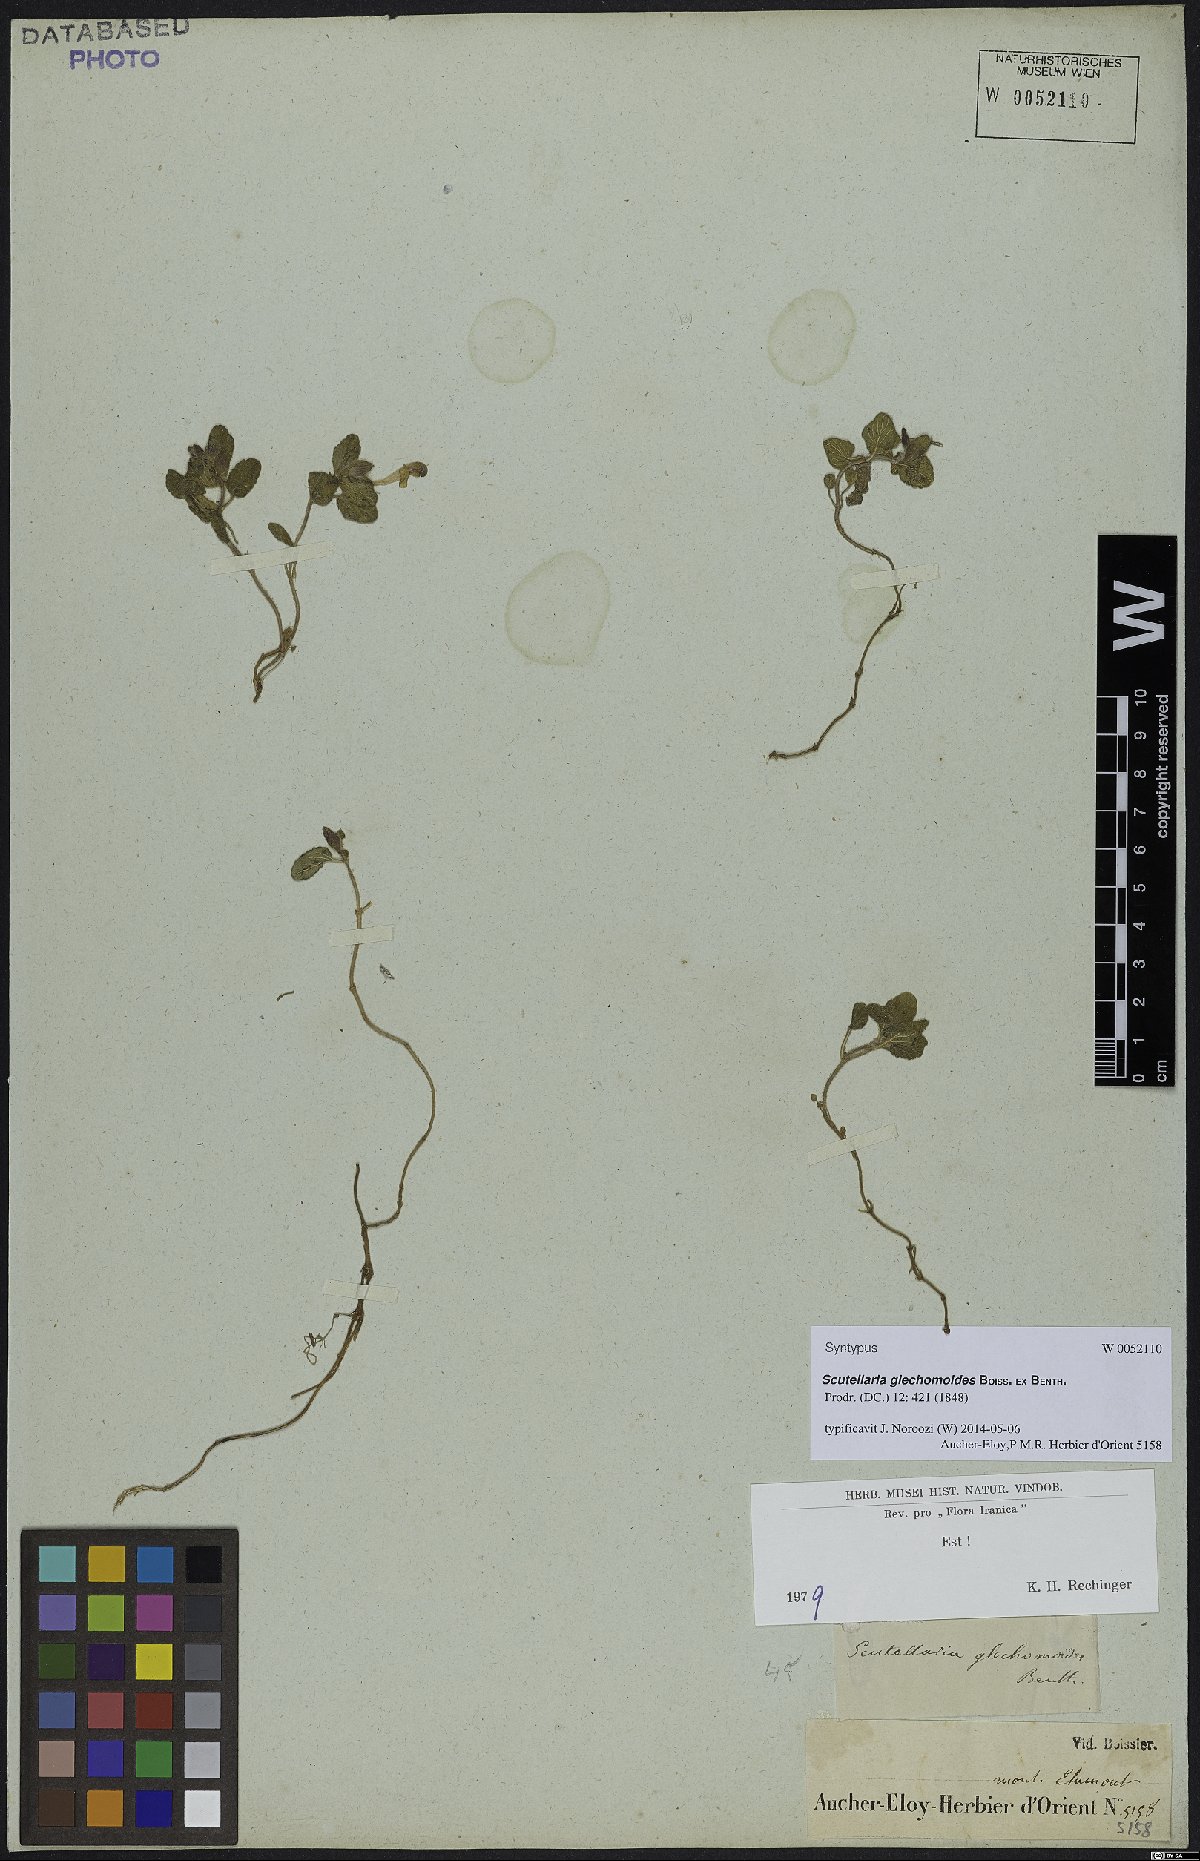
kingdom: Plantae
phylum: Tracheophyta
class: Magnoliopsida
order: Lamiales
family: Lamiaceae
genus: Scutellaria
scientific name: Scutellaria glechomoides
